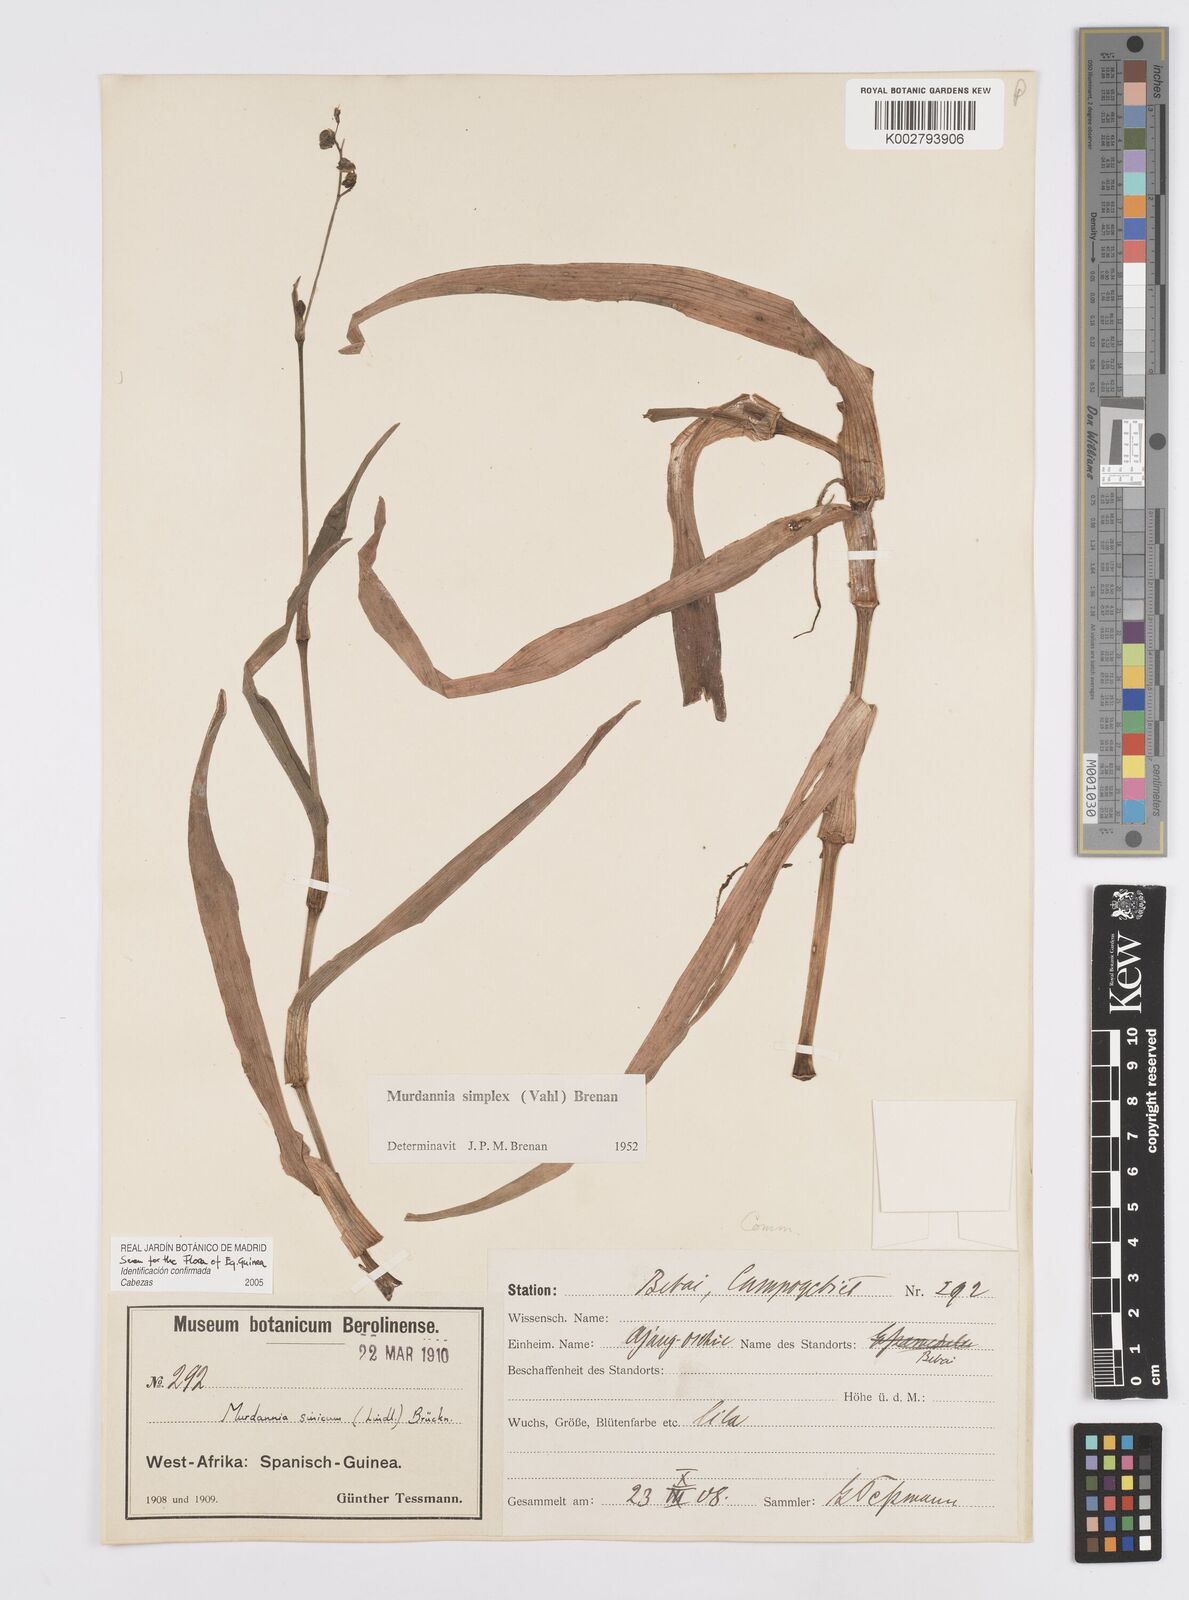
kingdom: Plantae
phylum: Tracheophyta
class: Liliopsida
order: Commelinales
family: Commelinaceae
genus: Murdannia
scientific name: Murdannia simplex
